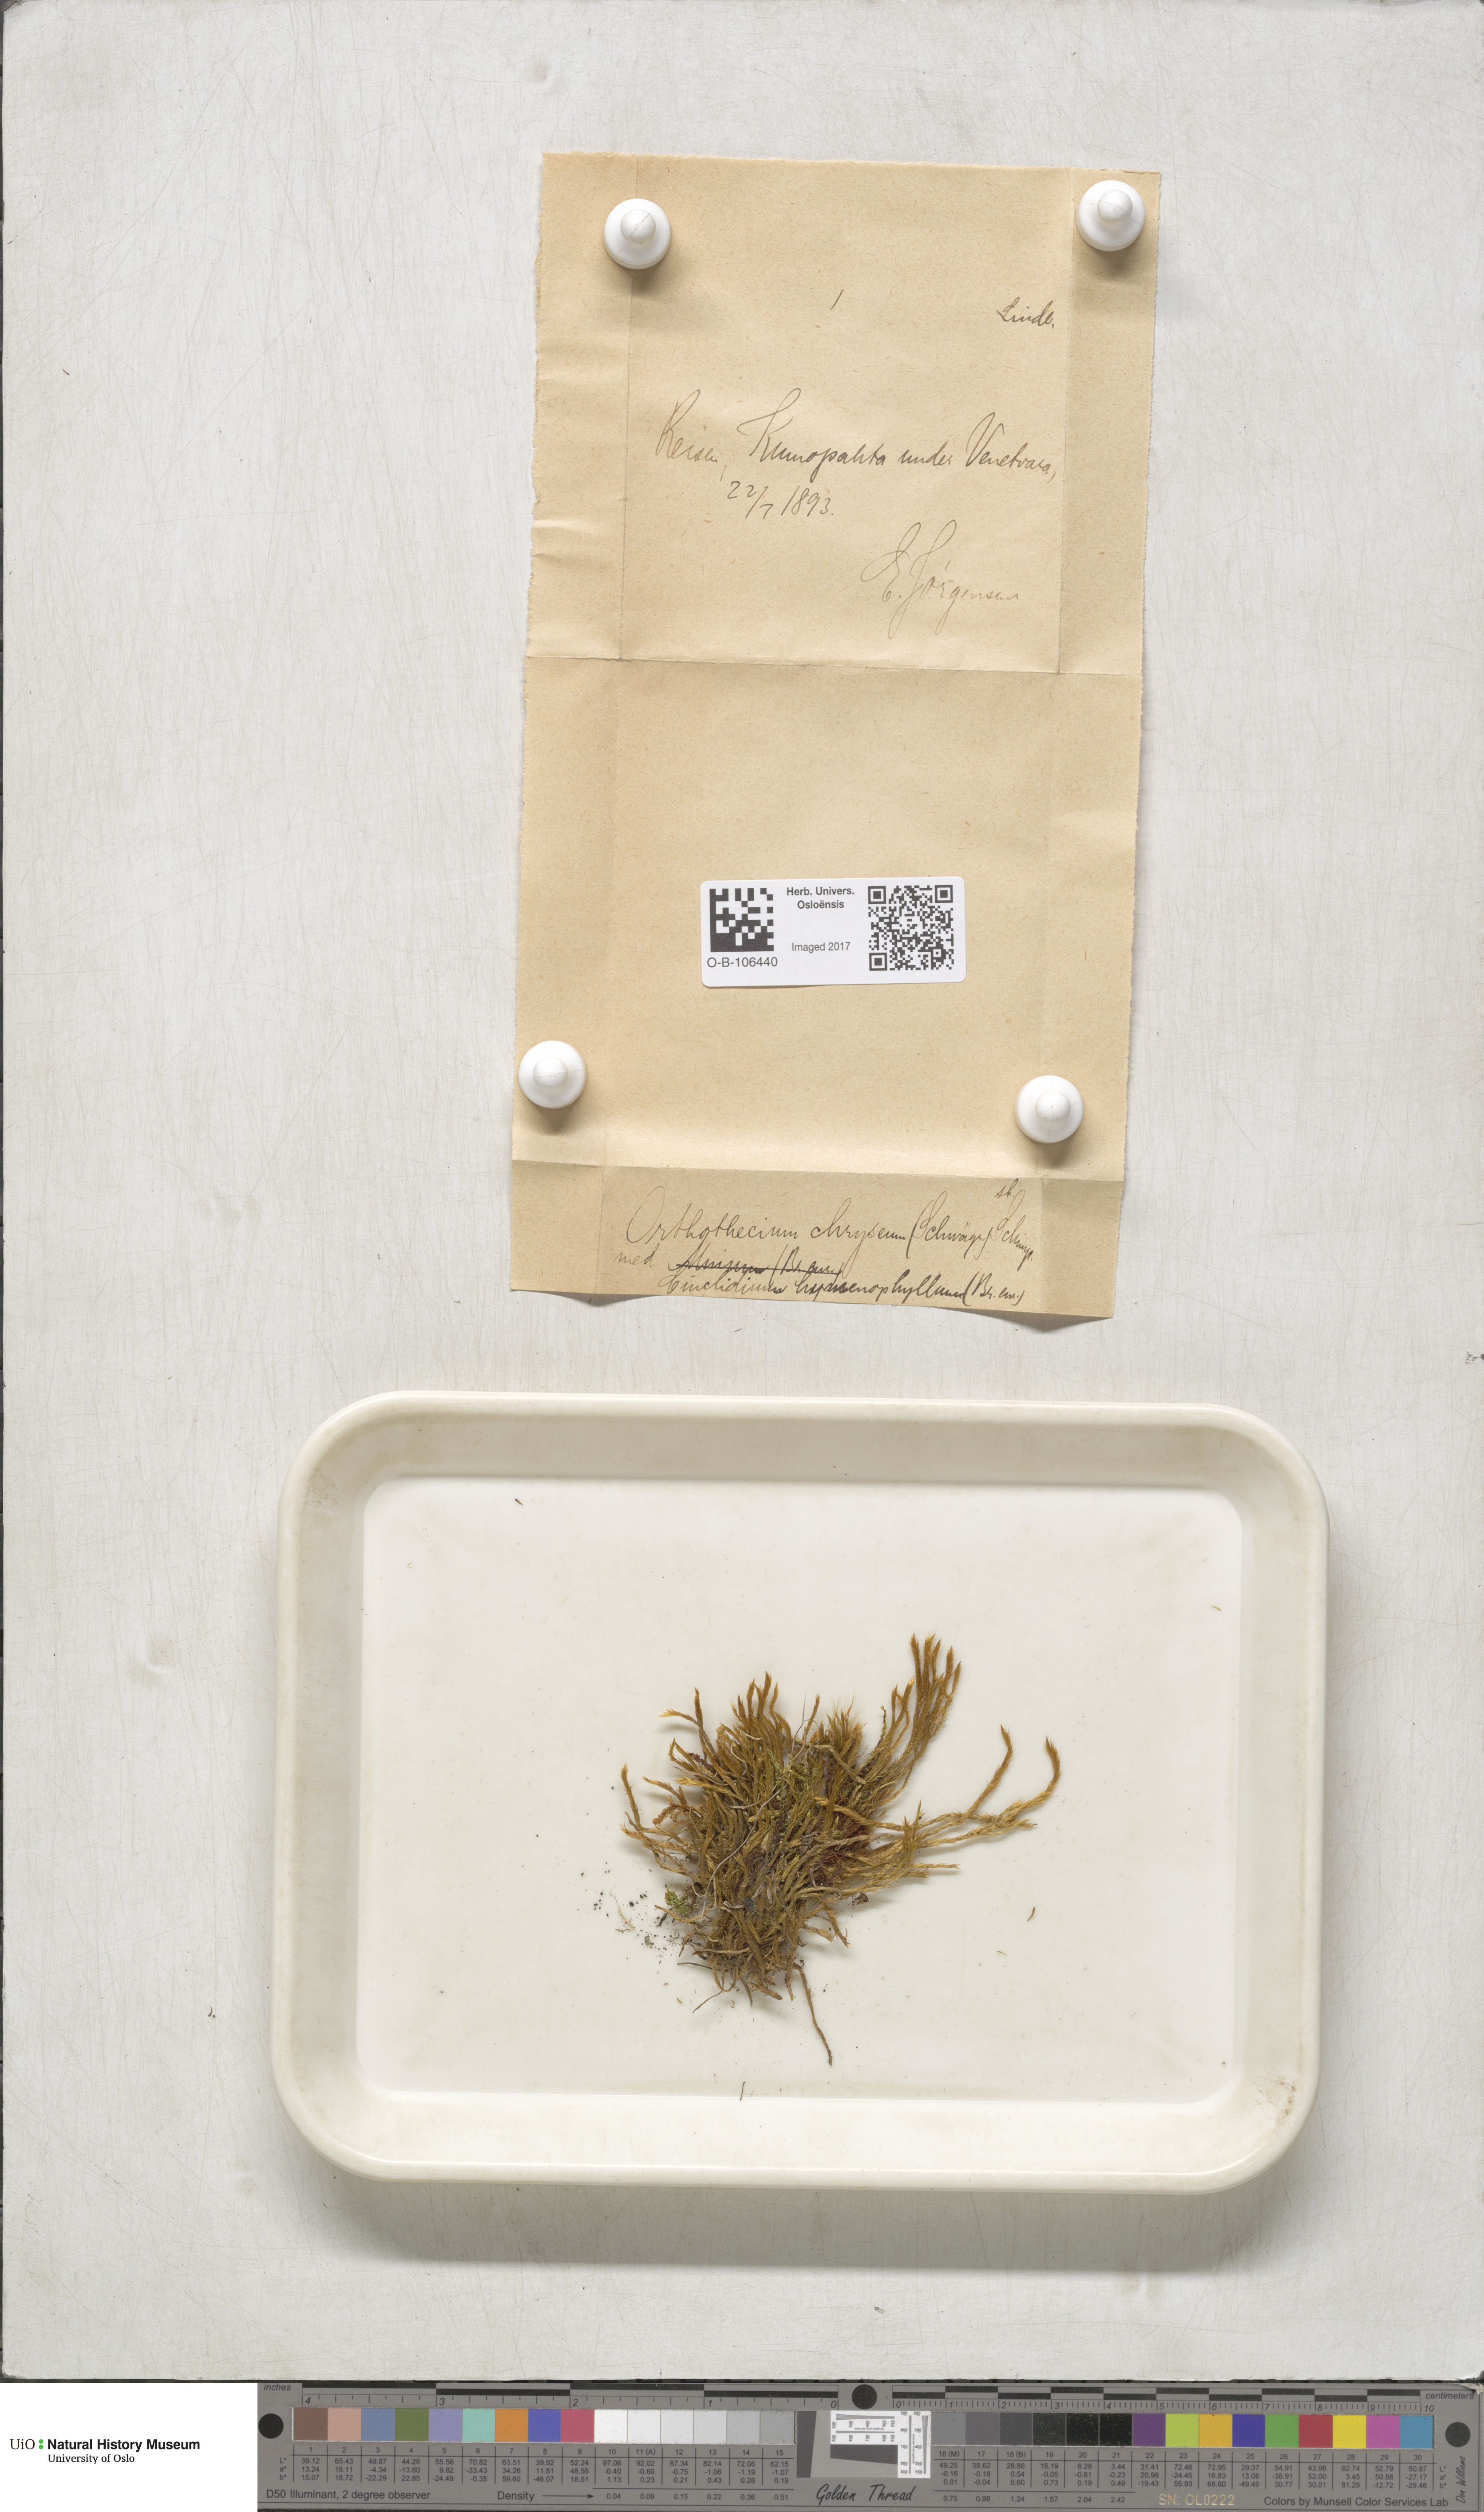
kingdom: Plantae
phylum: Bryophyta
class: Bryopsida
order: Hypnales
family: Plagiotheciaceae
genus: Orthothecium
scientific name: Orthothecium chryseon
